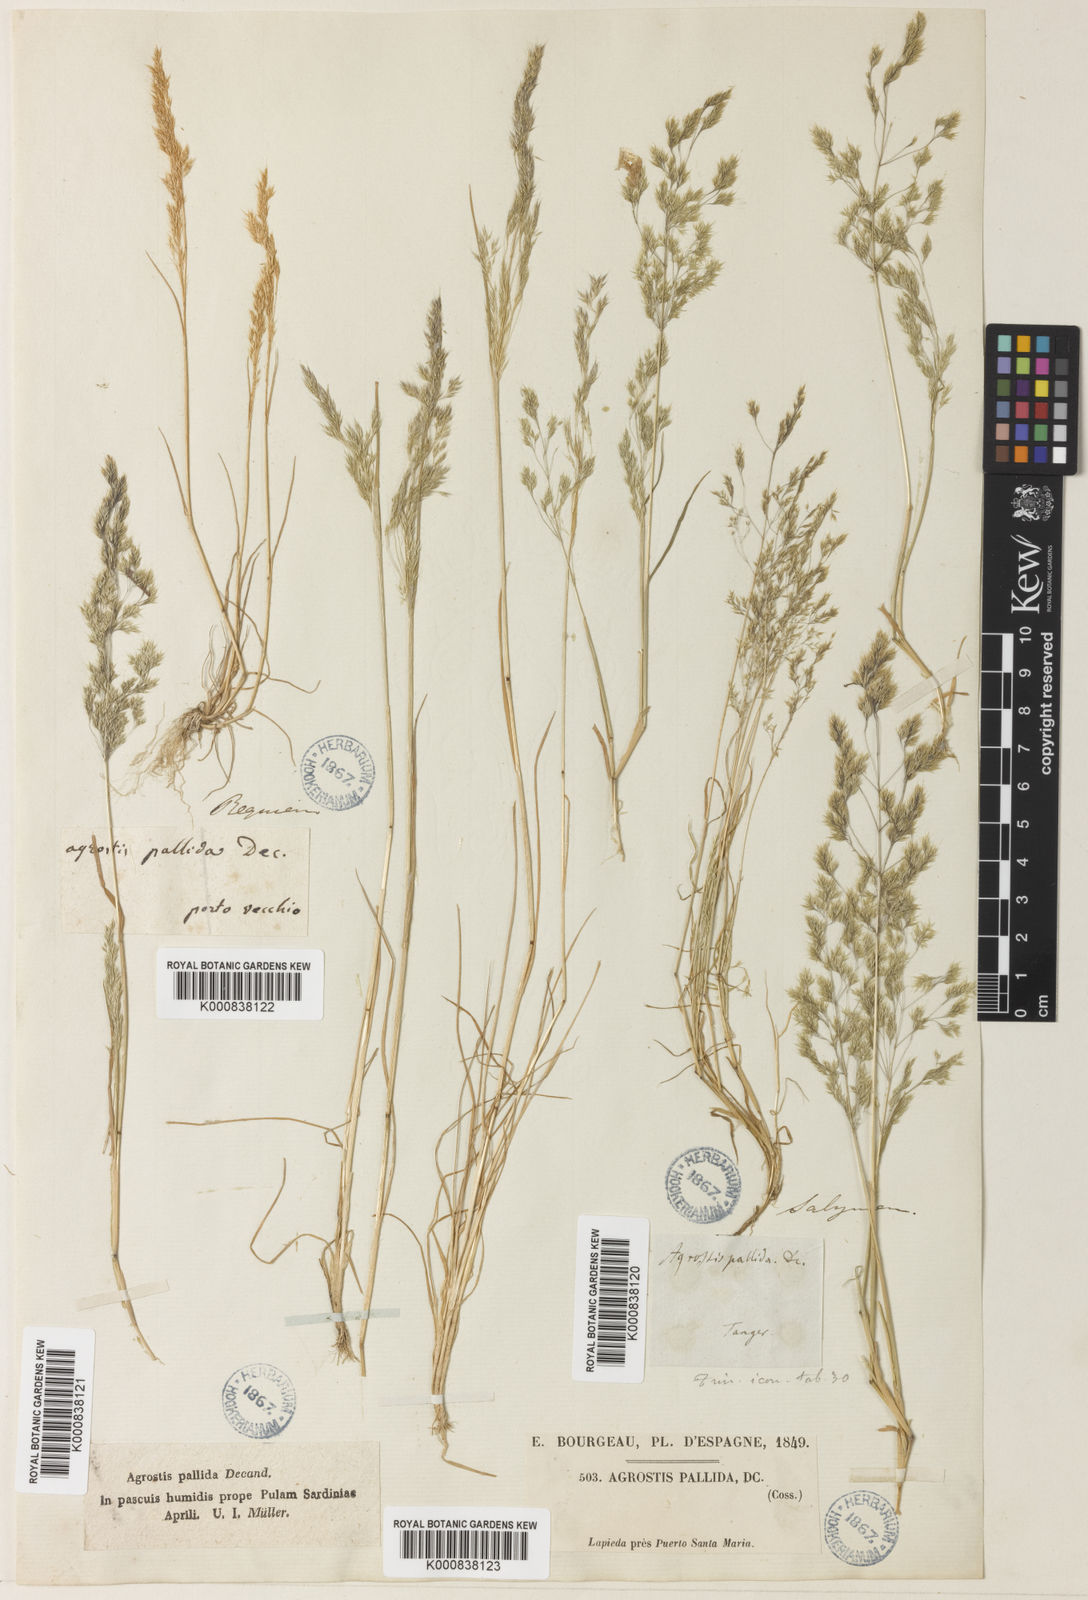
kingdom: Plantae
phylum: Tracheophyta
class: Liliopsida
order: Poales
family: Poaceae
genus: Agrostis
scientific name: Agrostis pourretii
